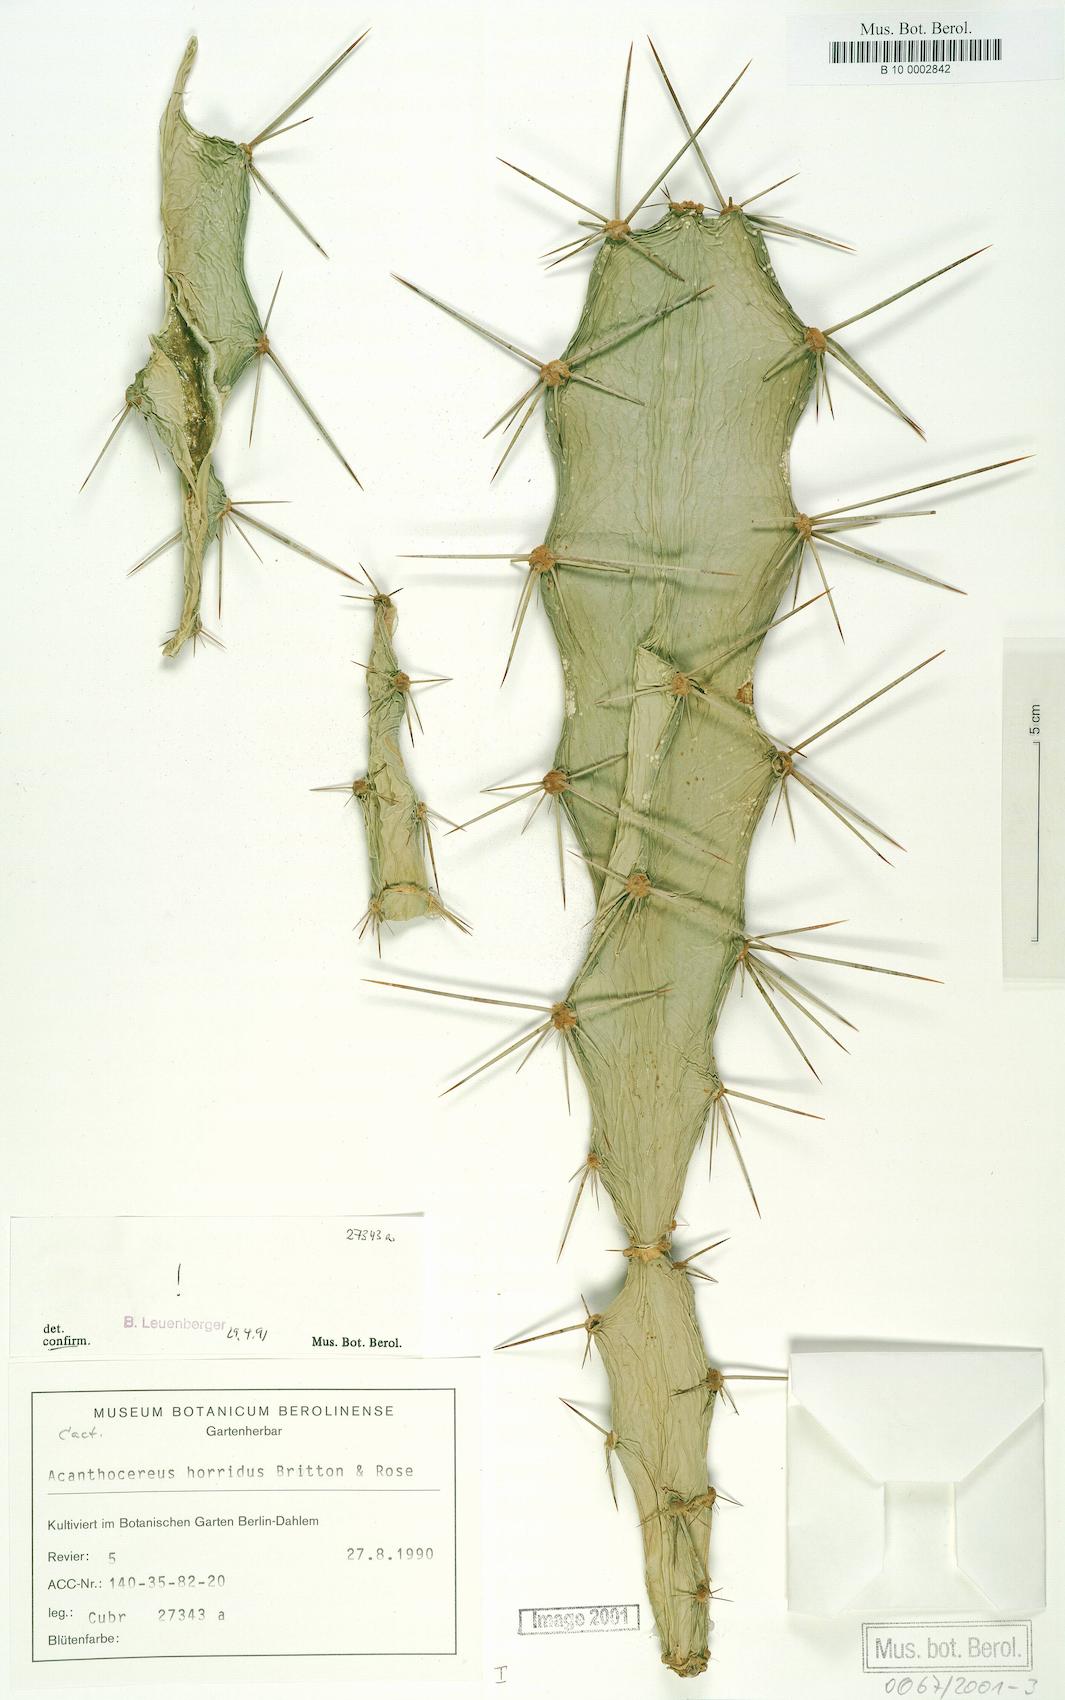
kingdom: Plantae
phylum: Tracheophyta
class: Magnoliopsida
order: Caryophyllales
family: Cactaceae
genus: Acanthocereus
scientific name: Acanthocereus tetragonus
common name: Triangle cactus
